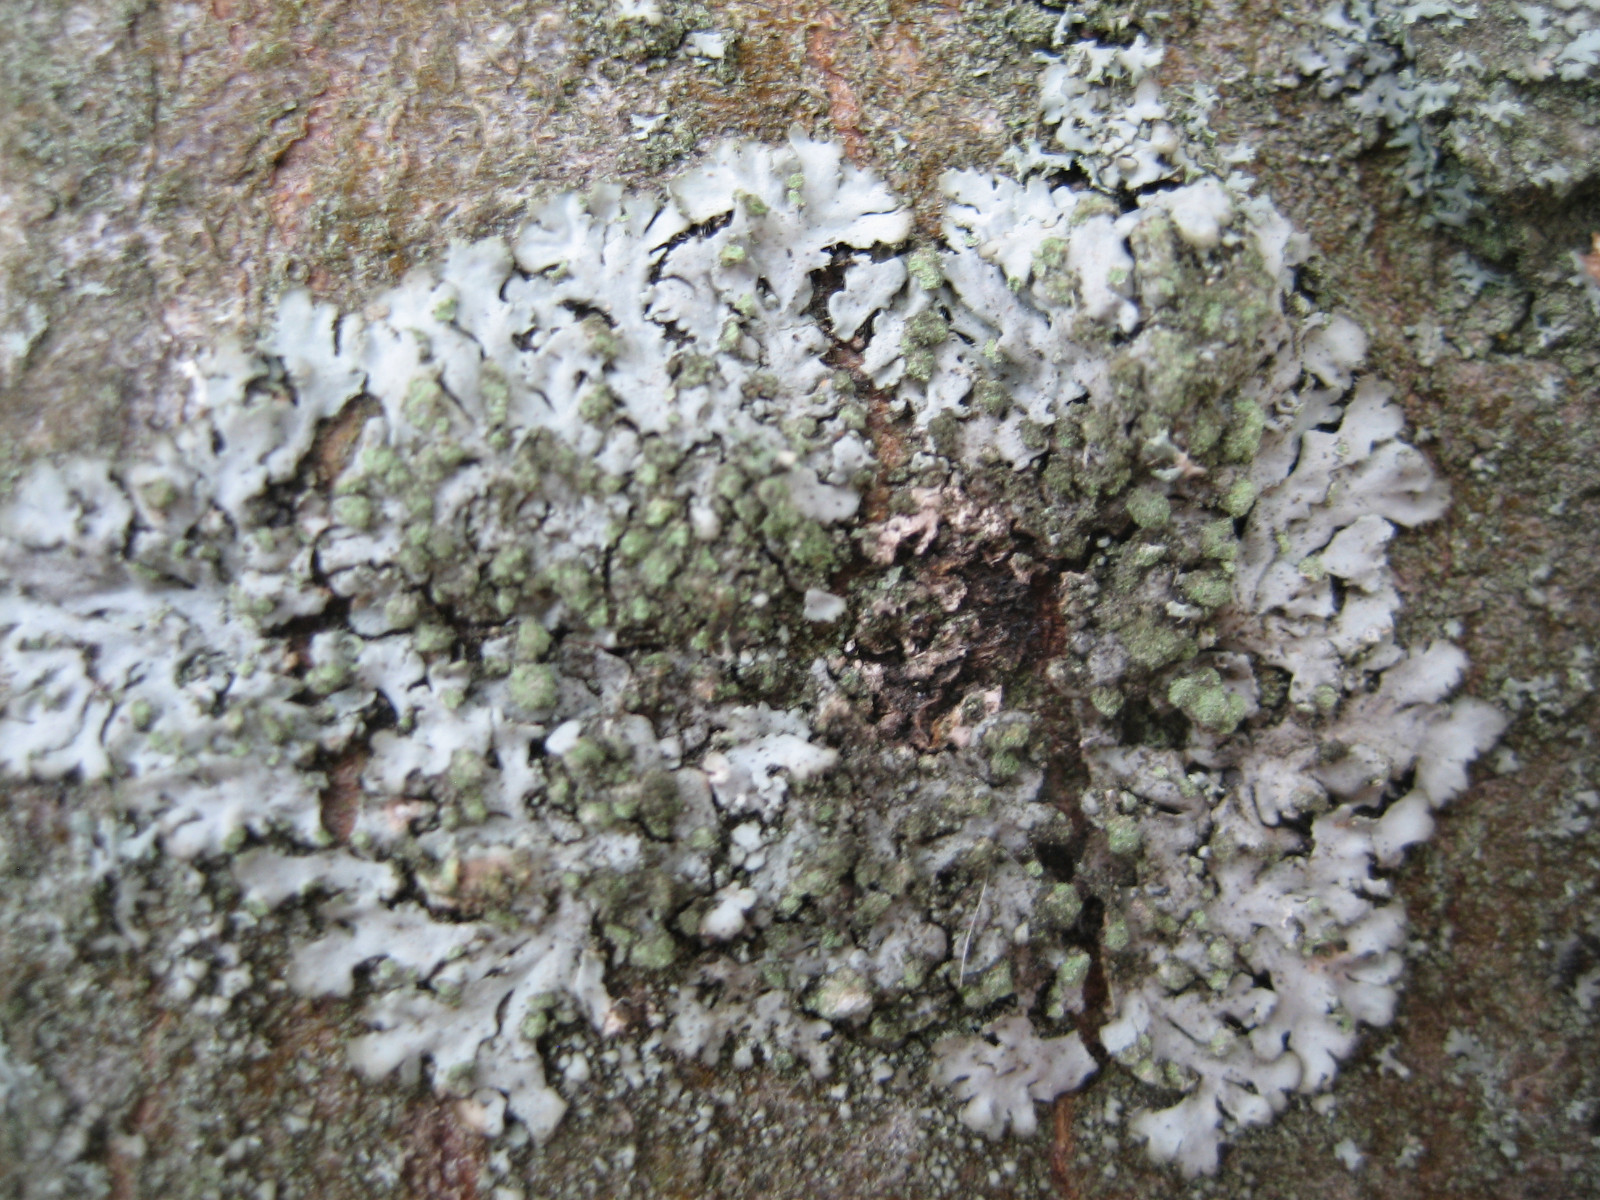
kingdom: Fungi
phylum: Ascomycota
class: Lecanoromycetes
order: Caliciales
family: Physciaceae
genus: Phaeophyscia
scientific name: Phaeophyscia orbicularis
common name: grågrøn rosetlav
